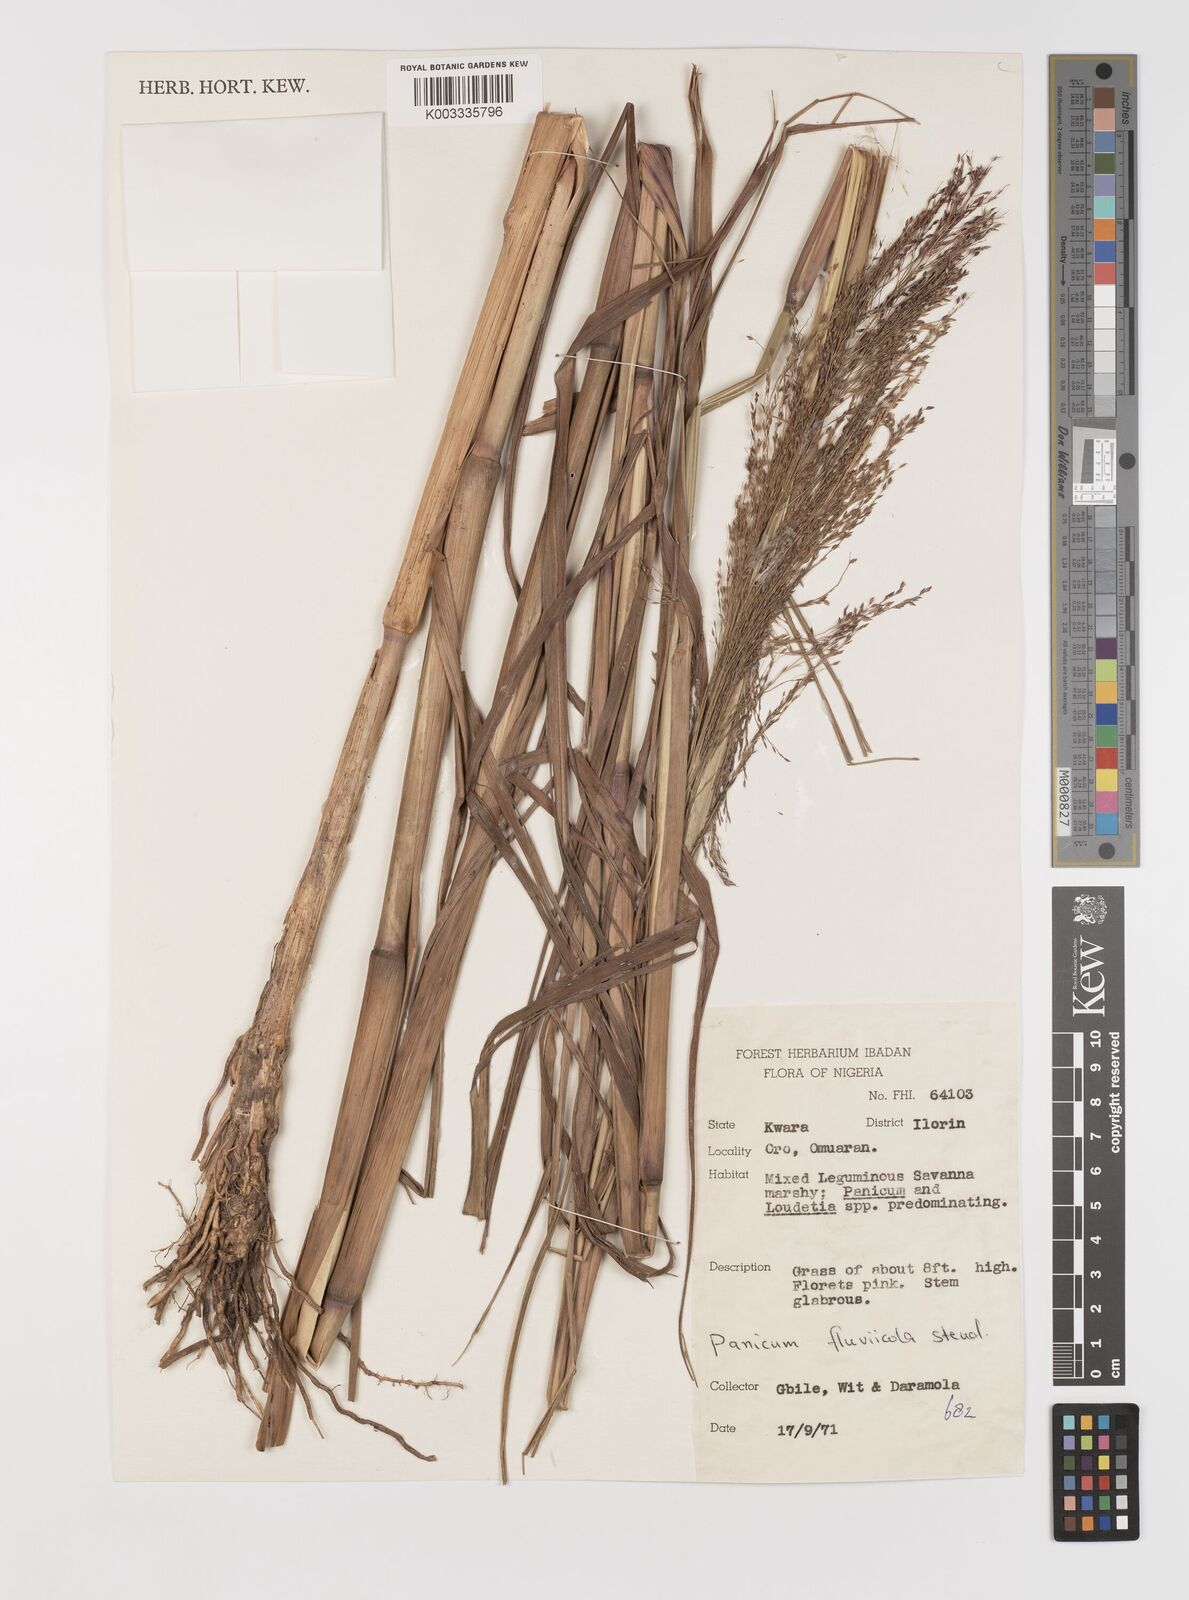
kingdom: Plantae
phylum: Tracheophyta
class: Liliopsida
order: Poales
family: Poaceae
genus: Panicum
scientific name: Panicum fluviicola
